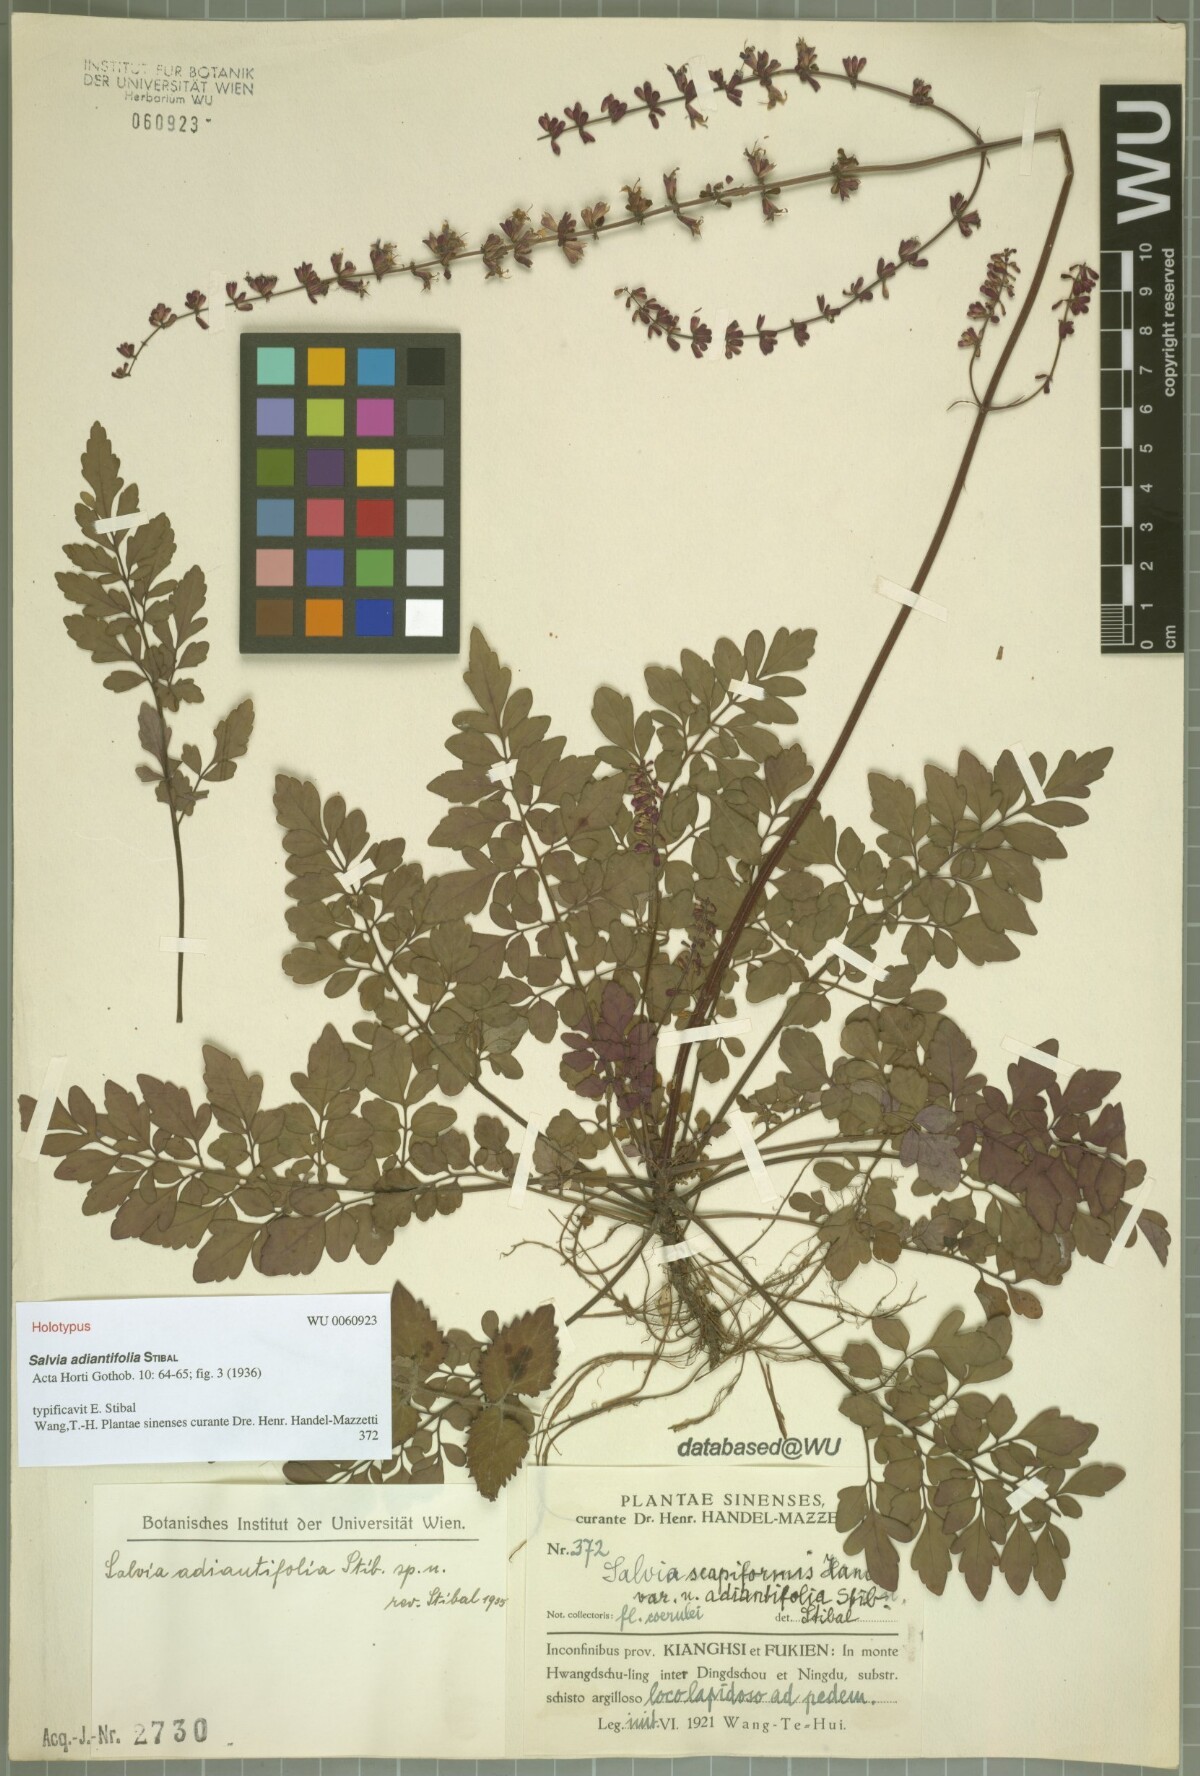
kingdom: Plantae
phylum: Tracheophyta
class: Magnoliopsida
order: Lamiales
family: Lamiaceae
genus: Salvia
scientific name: Salvia adiantifolia
